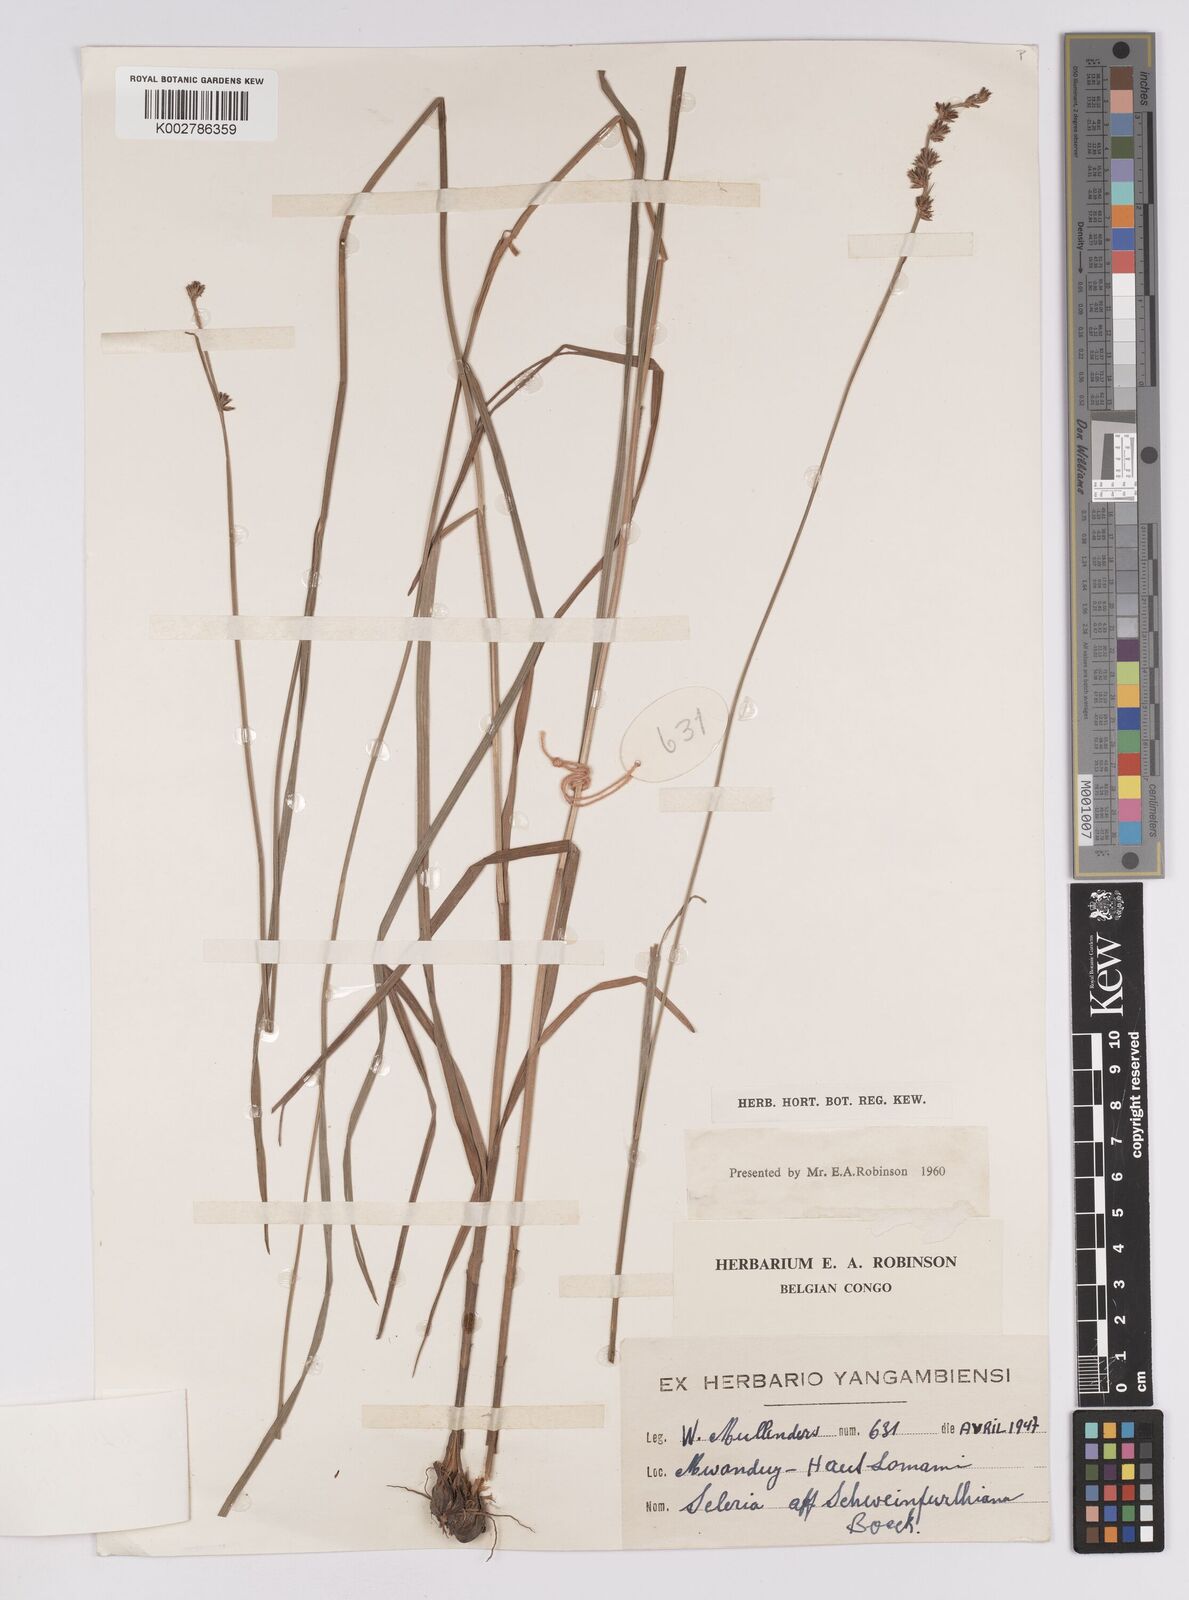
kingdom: Plantae
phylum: Tracheophyta
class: Liliopsida
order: Poales
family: Cyperaceae
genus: Scleria
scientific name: Scleria bulbifera
